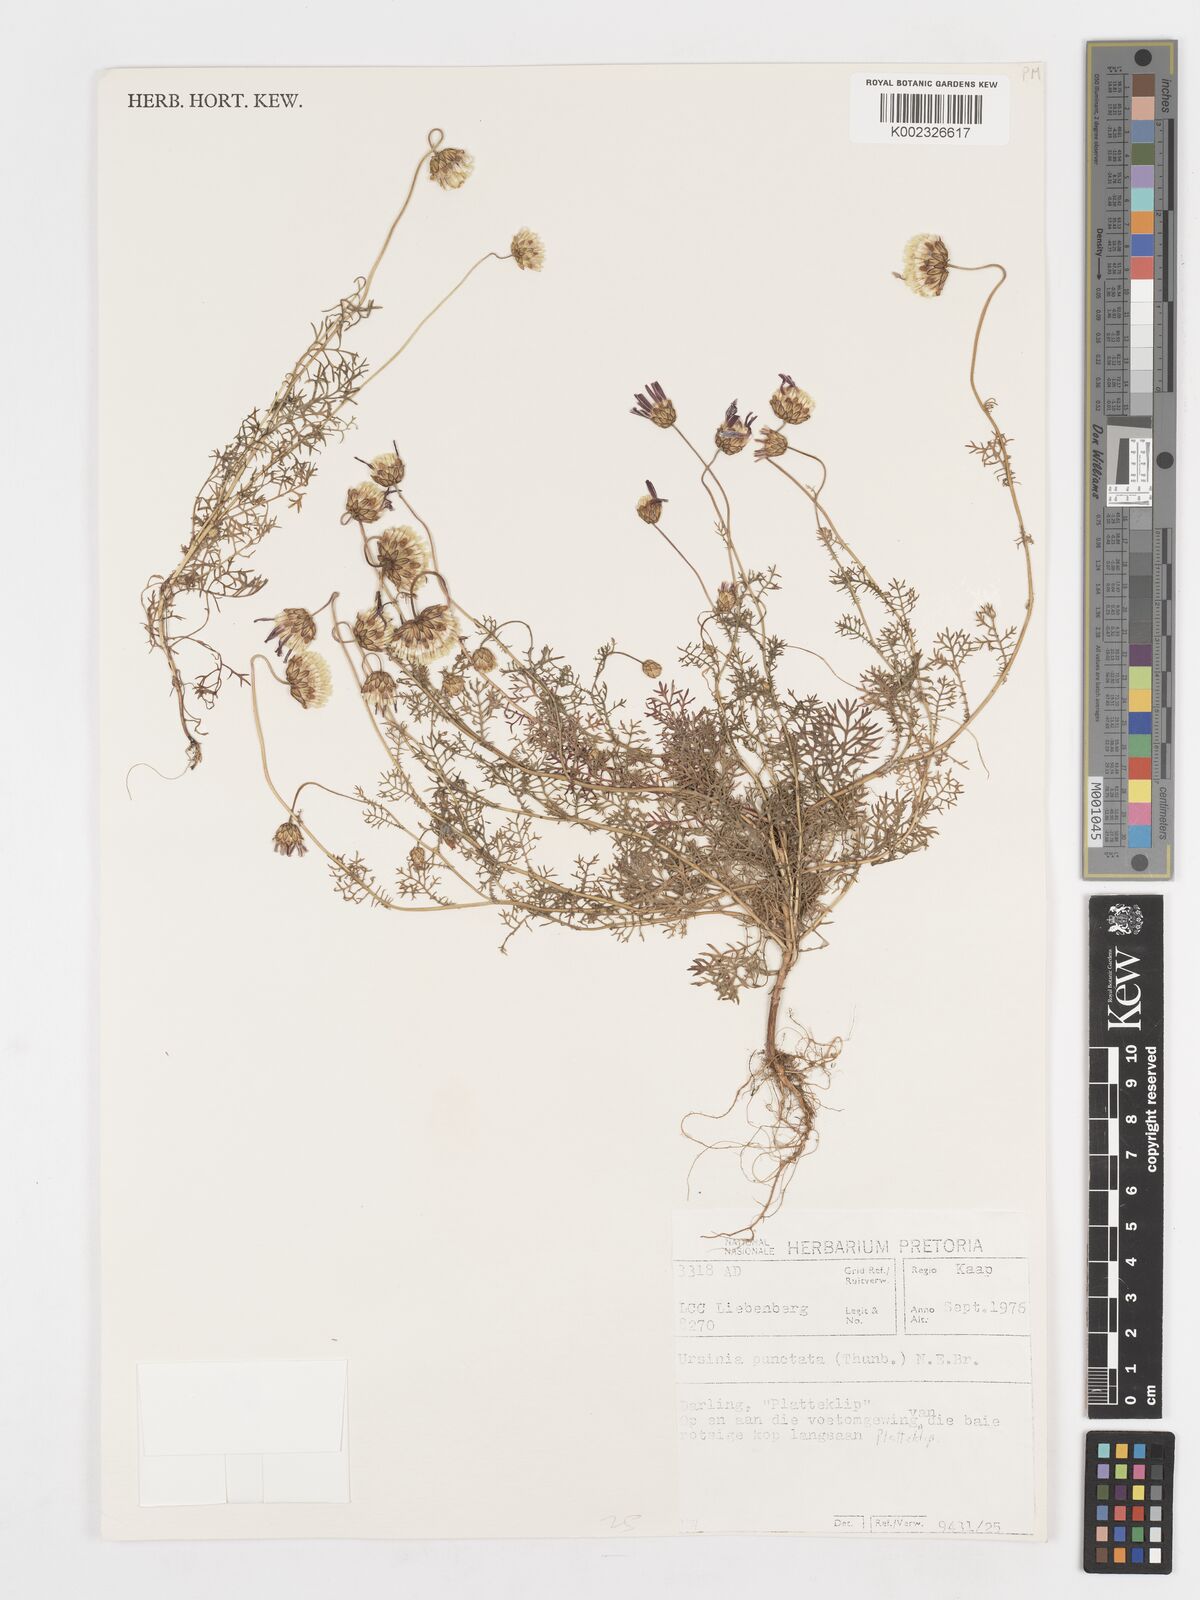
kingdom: Plantae
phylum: Tracheophyta
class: Magnoliopsida
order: Asterales
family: Asteraceae
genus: Ursinia
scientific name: Ursinia punctata
